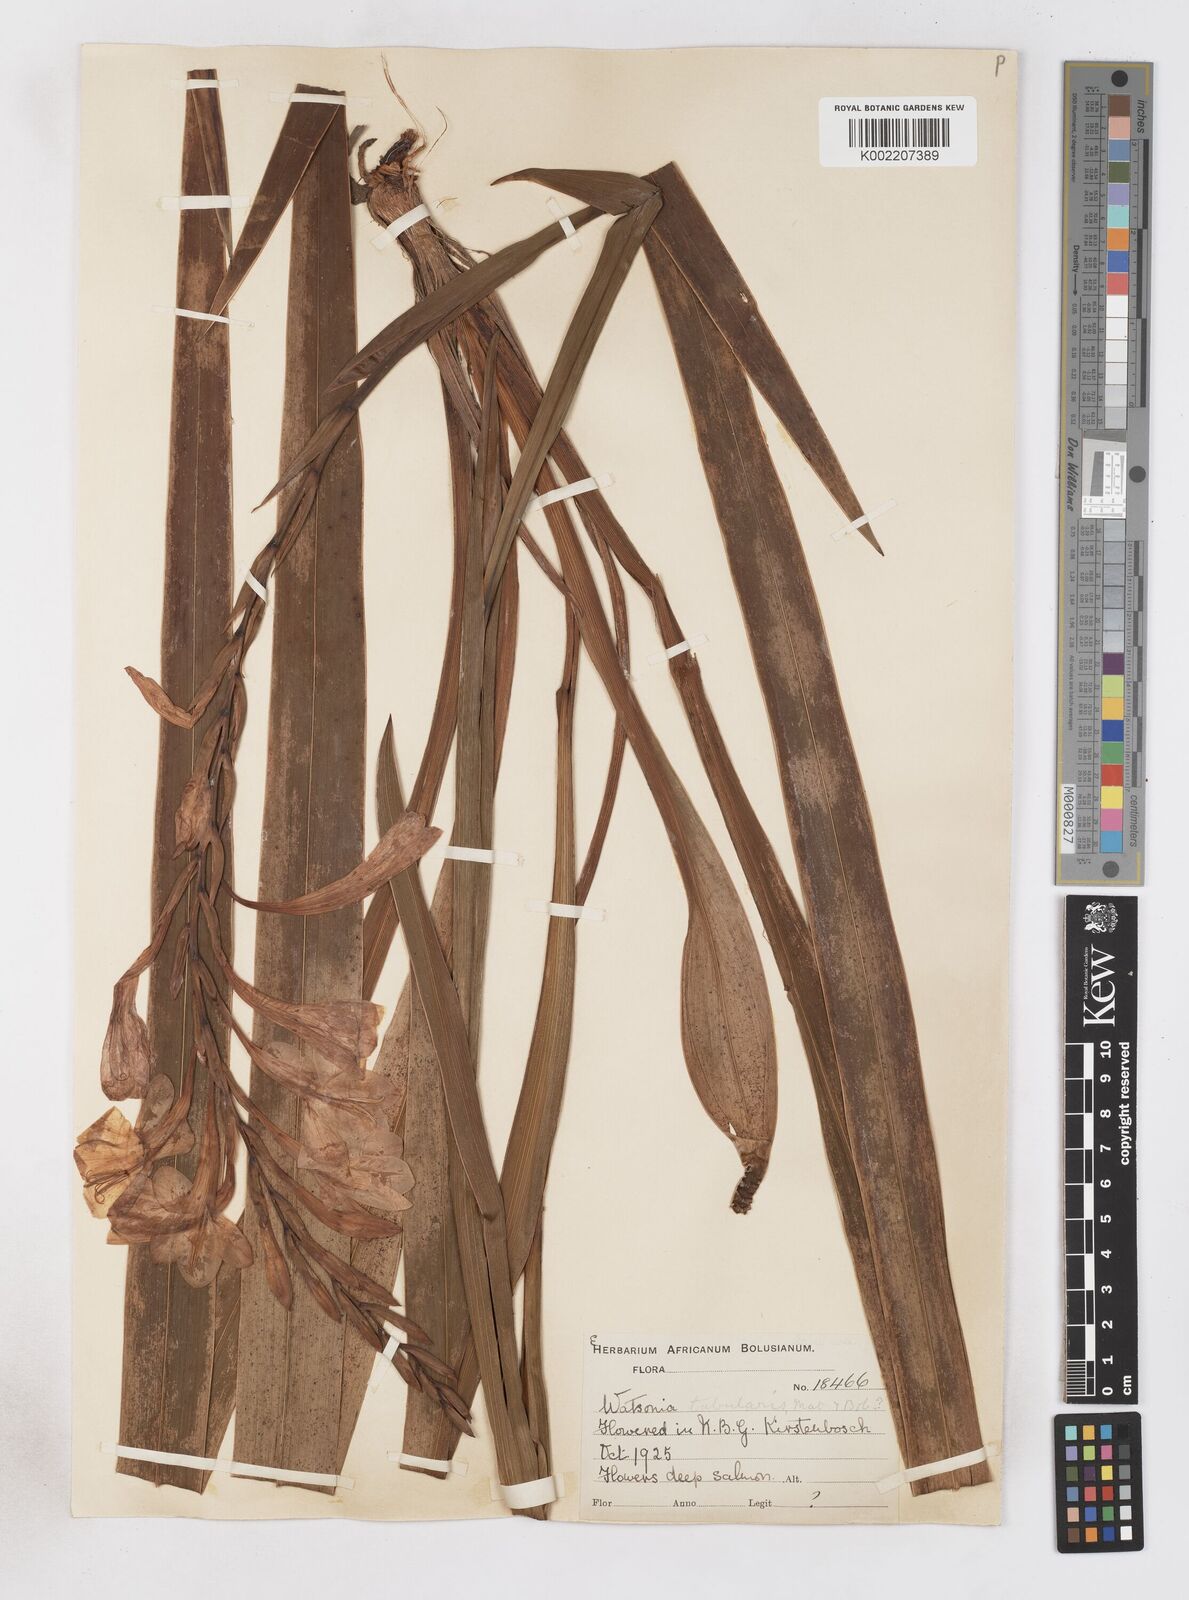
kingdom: Plantae
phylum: Tracheophyta
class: Liliopsida
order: Asparagales
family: Iridaceae
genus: Watsonia
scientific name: Watsonia pillansii
